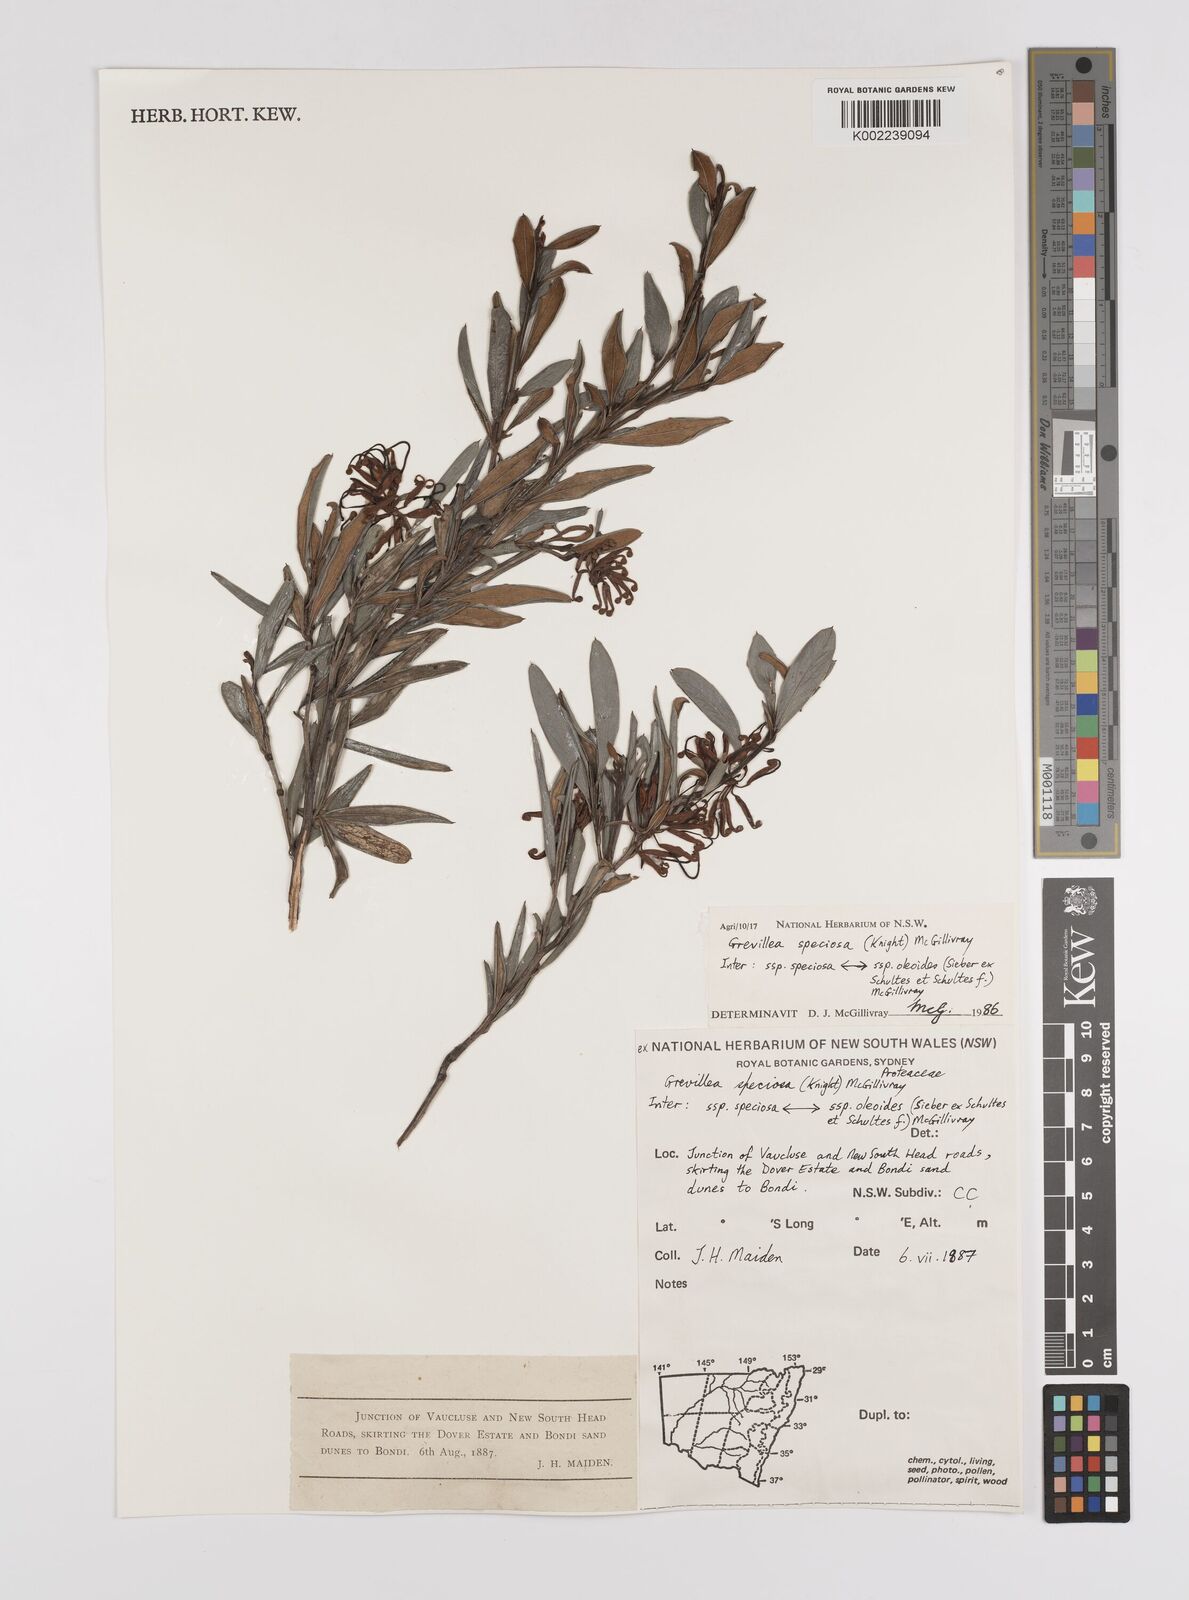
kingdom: Plantae
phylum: Tracheophyta
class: Magnoliopsida
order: Proteales
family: Proteaceae
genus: Grevillea
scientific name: Grevillea speciosa
